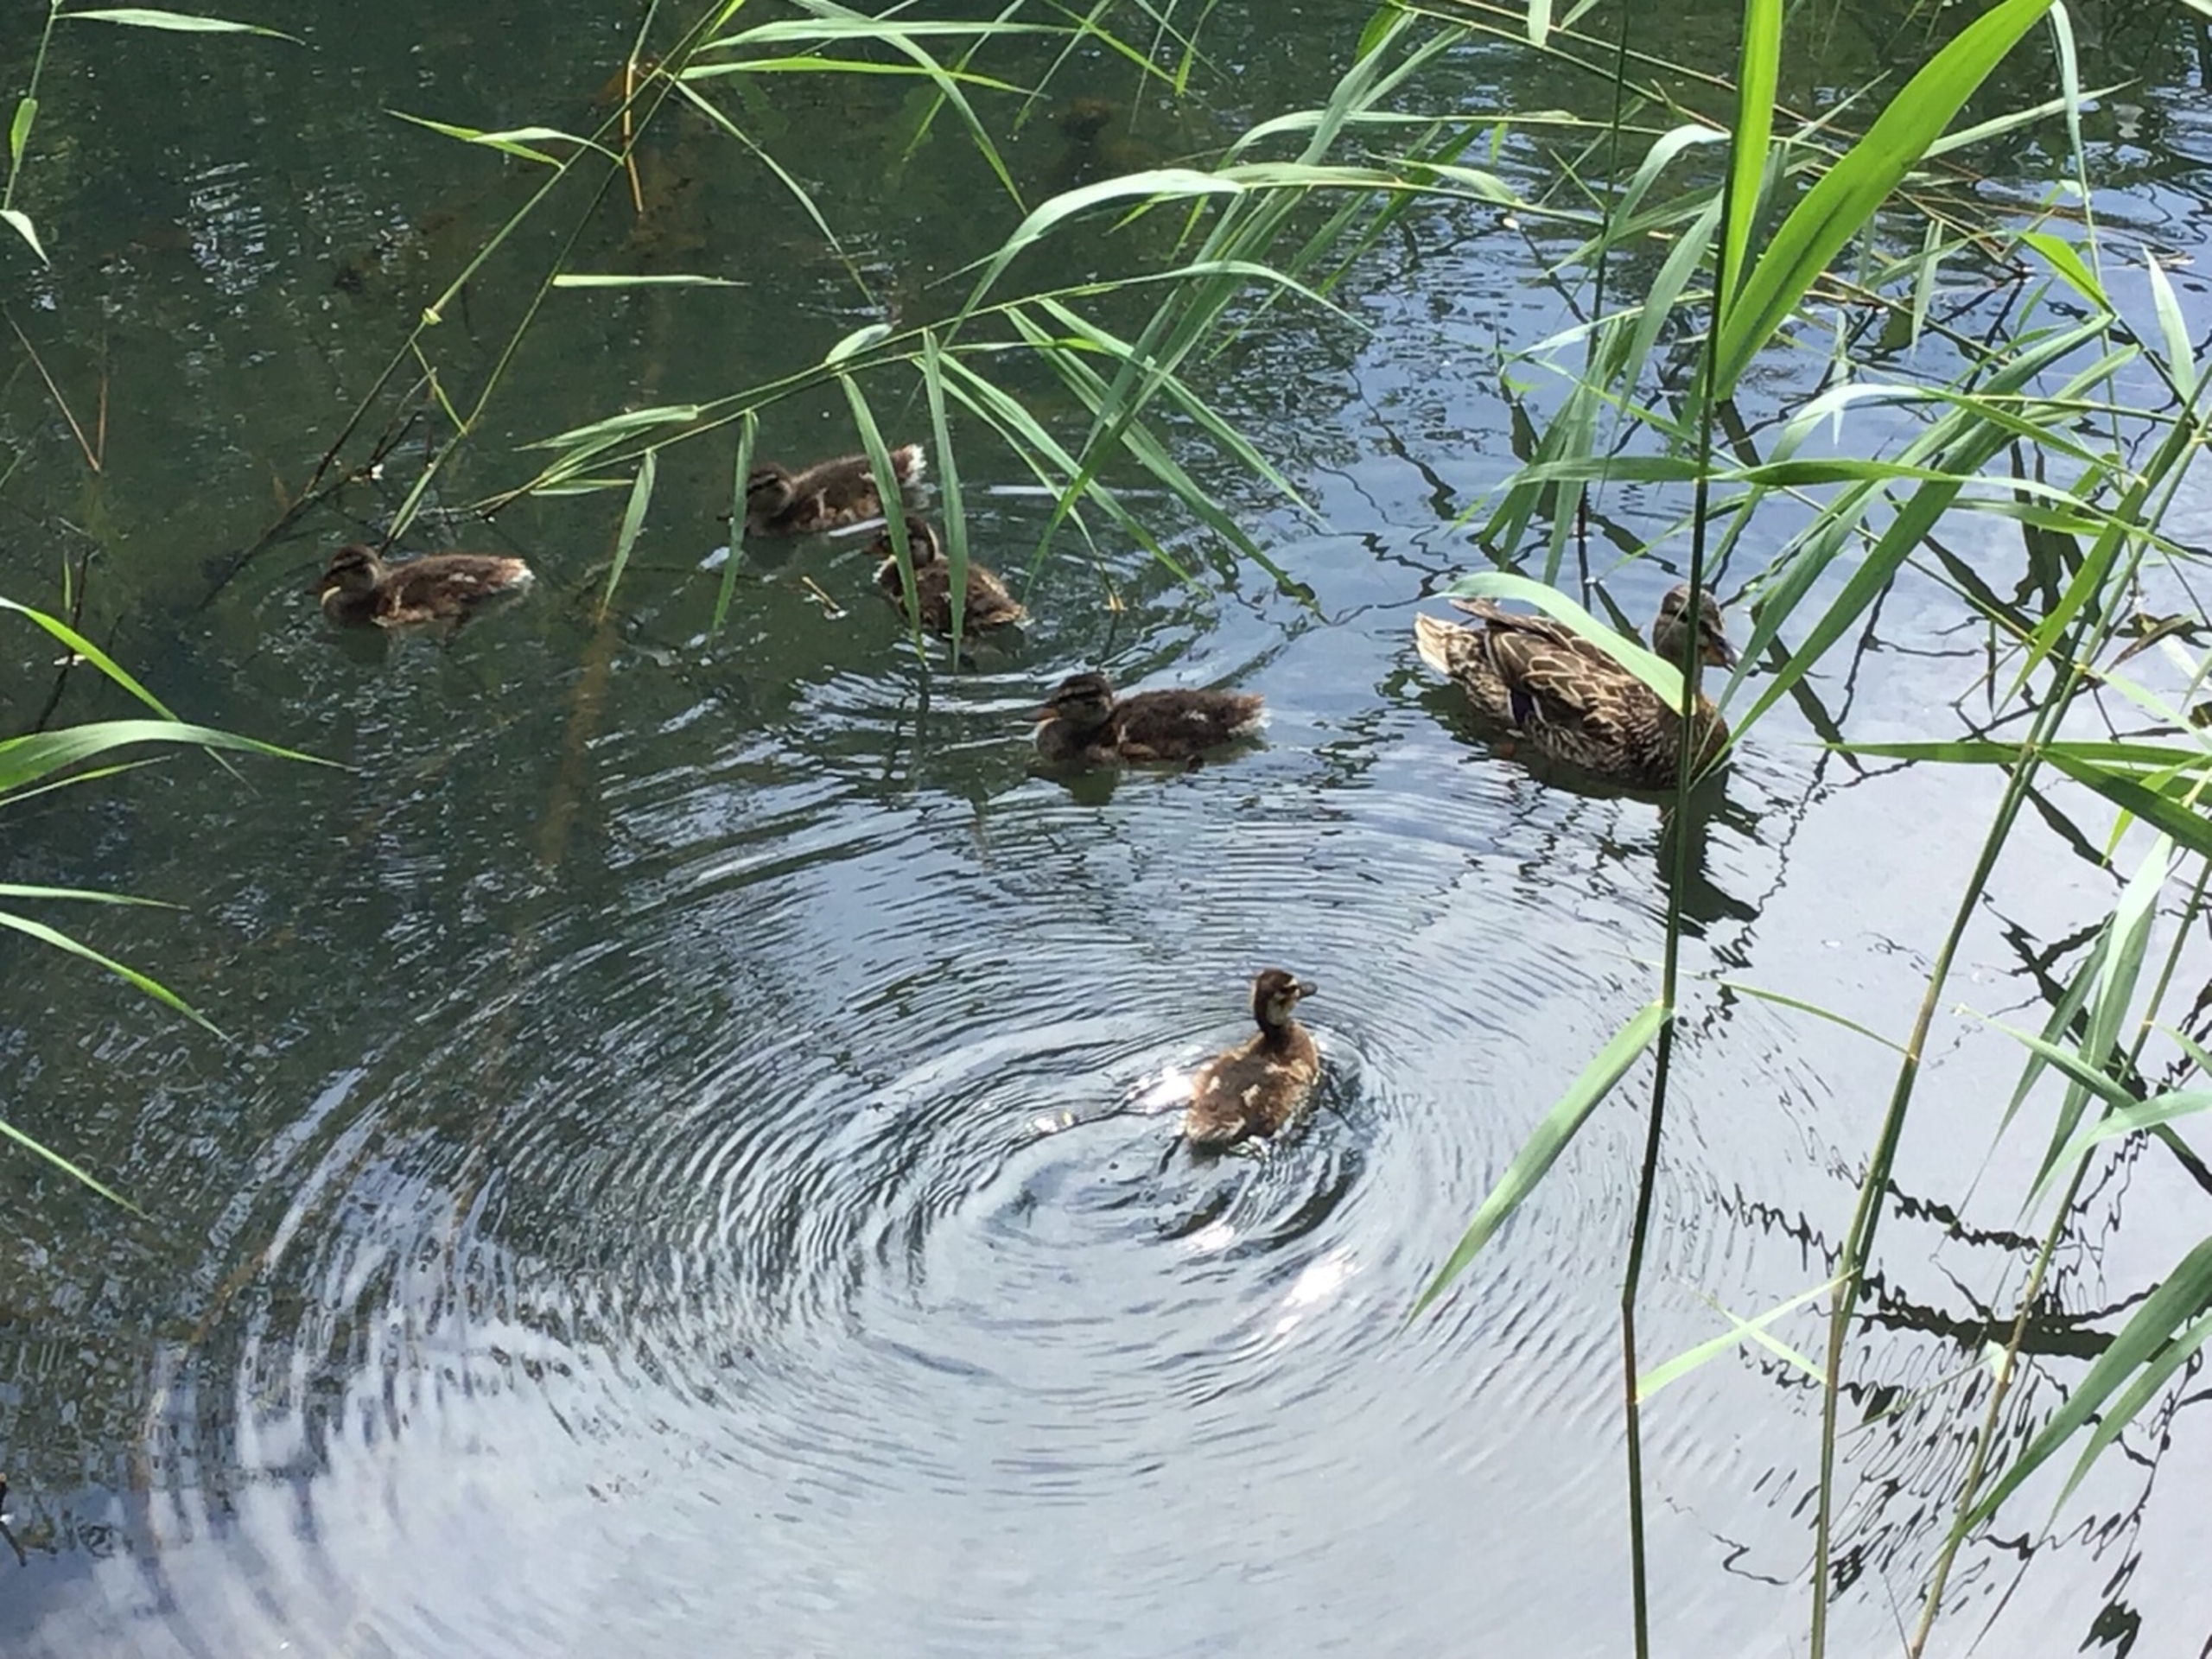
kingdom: Animalia
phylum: Chordata
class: Aves
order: Anseriformes
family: Anatidae
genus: Anas
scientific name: Anas platyrhynchos
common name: Gråand
